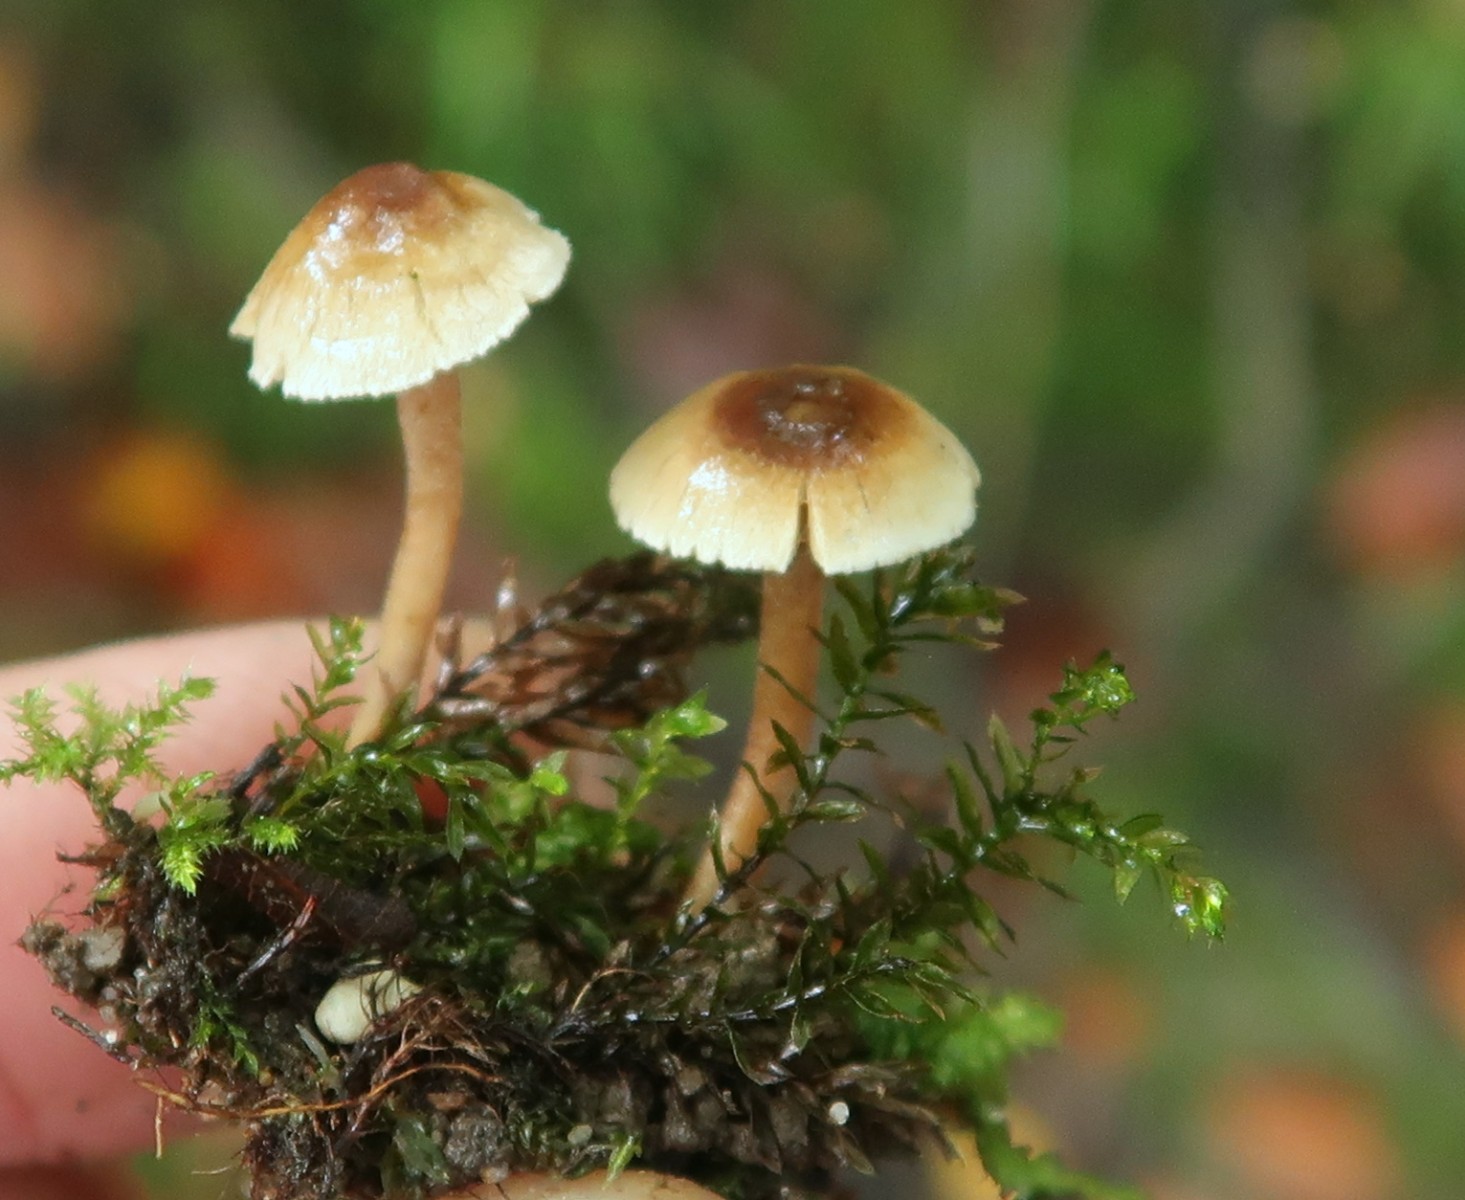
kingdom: Fungi
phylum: Basidiomycota
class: Agaricomycetes
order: Agaricales
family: Inocybaceae
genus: Inocybe
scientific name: Inocybe petiginosa
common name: liden trævlhat
